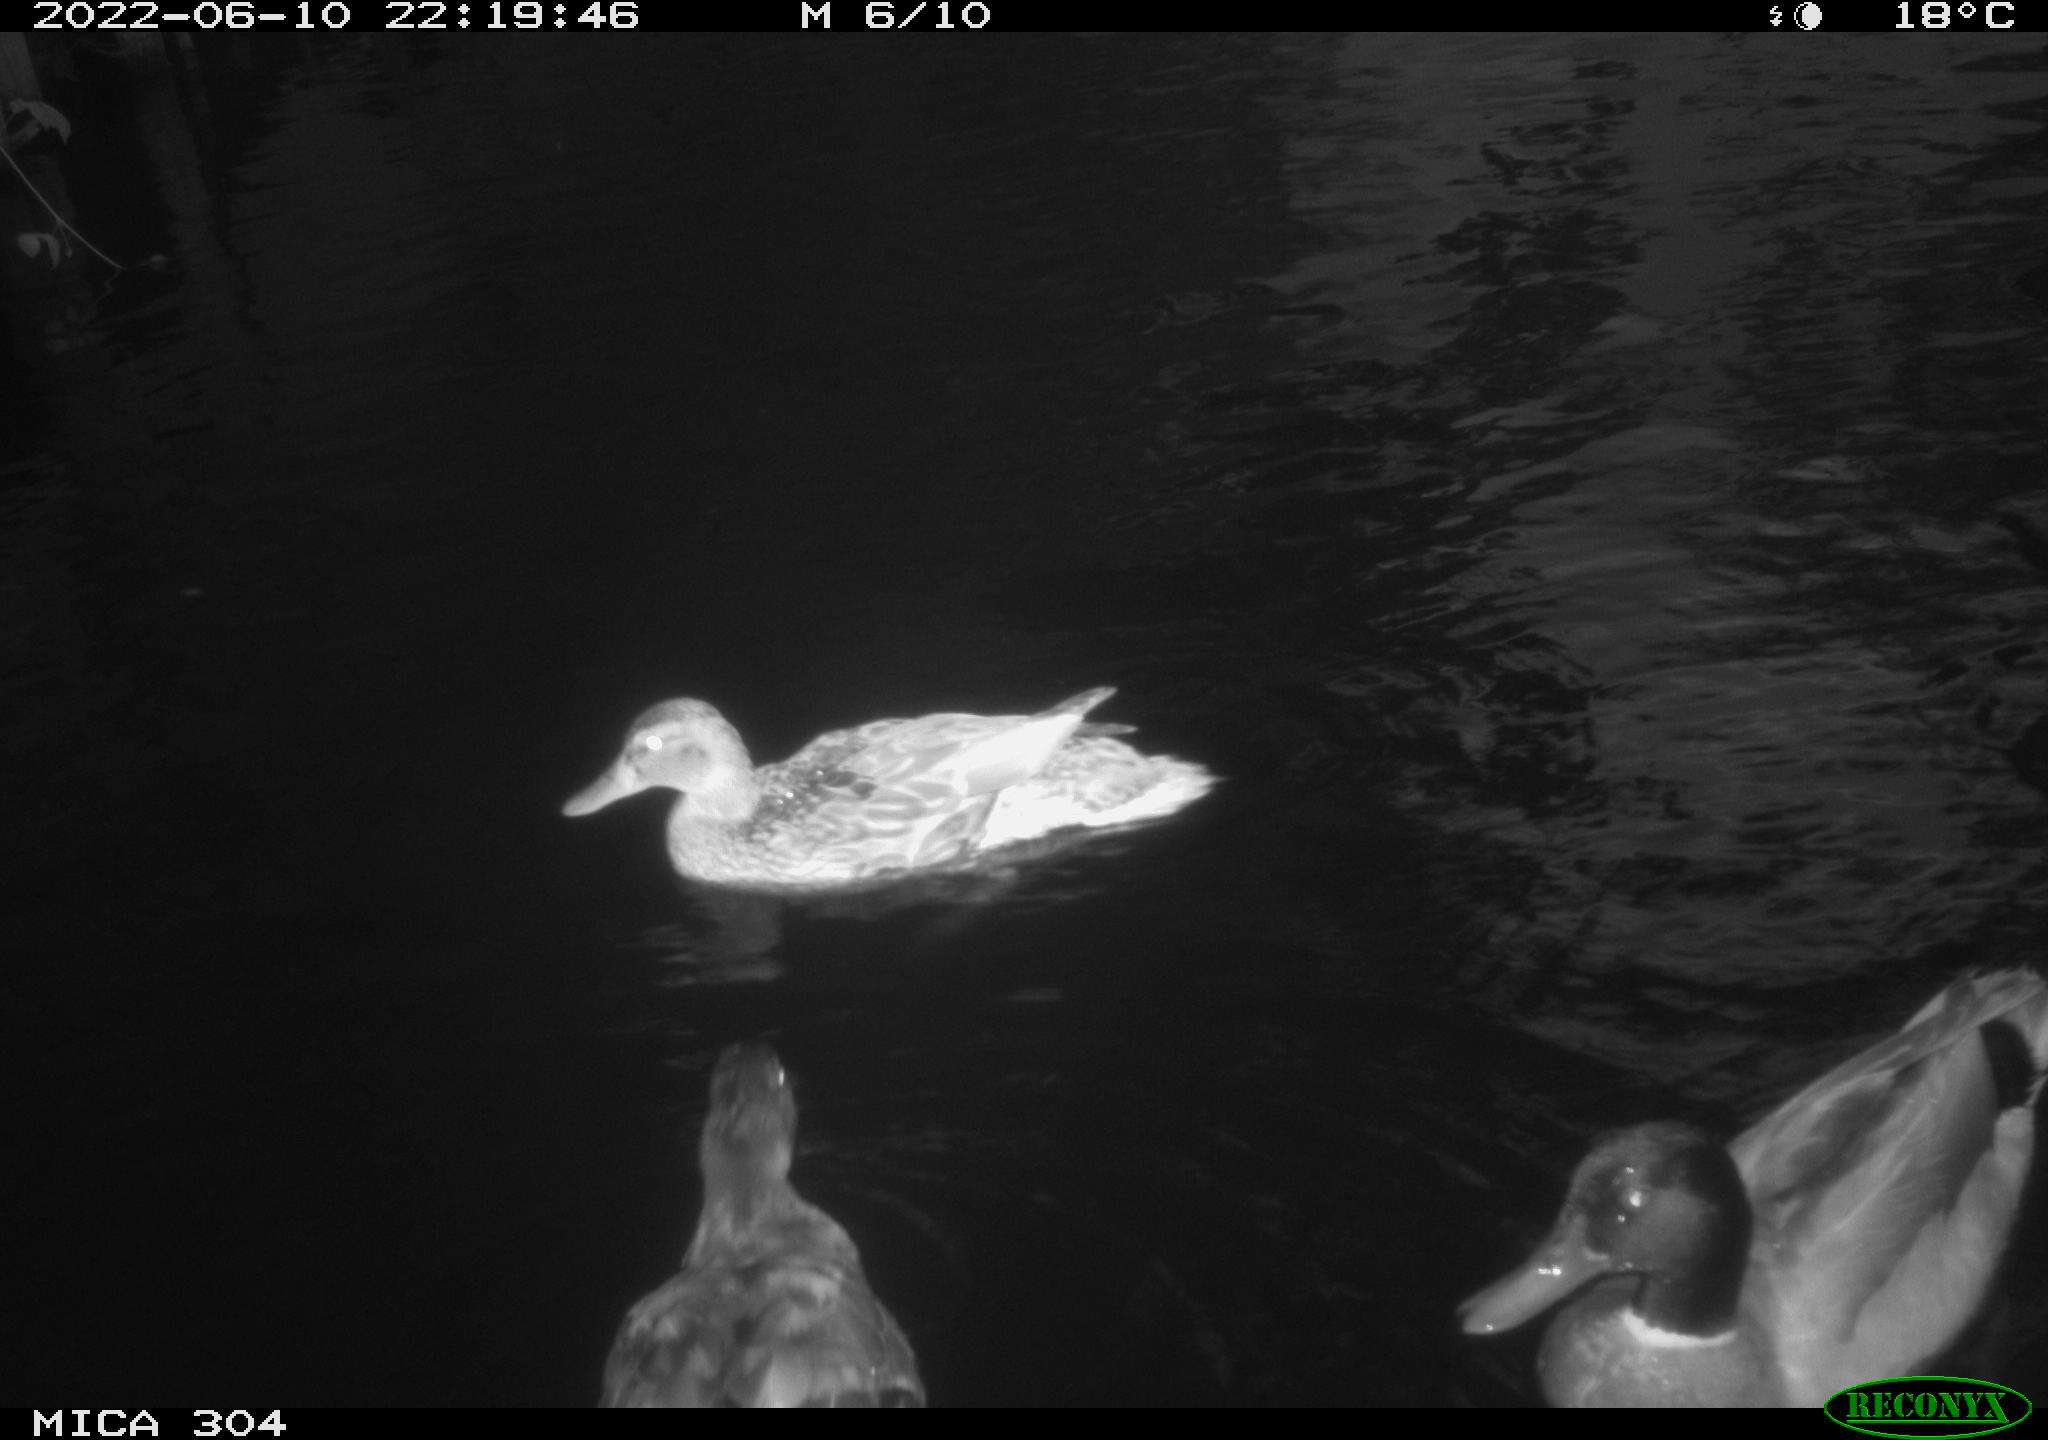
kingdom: Animalia
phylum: Chordata
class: Aves
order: Anseriformes
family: Anatidae
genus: Anas
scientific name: Anas platyrhynchos
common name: Mallard
